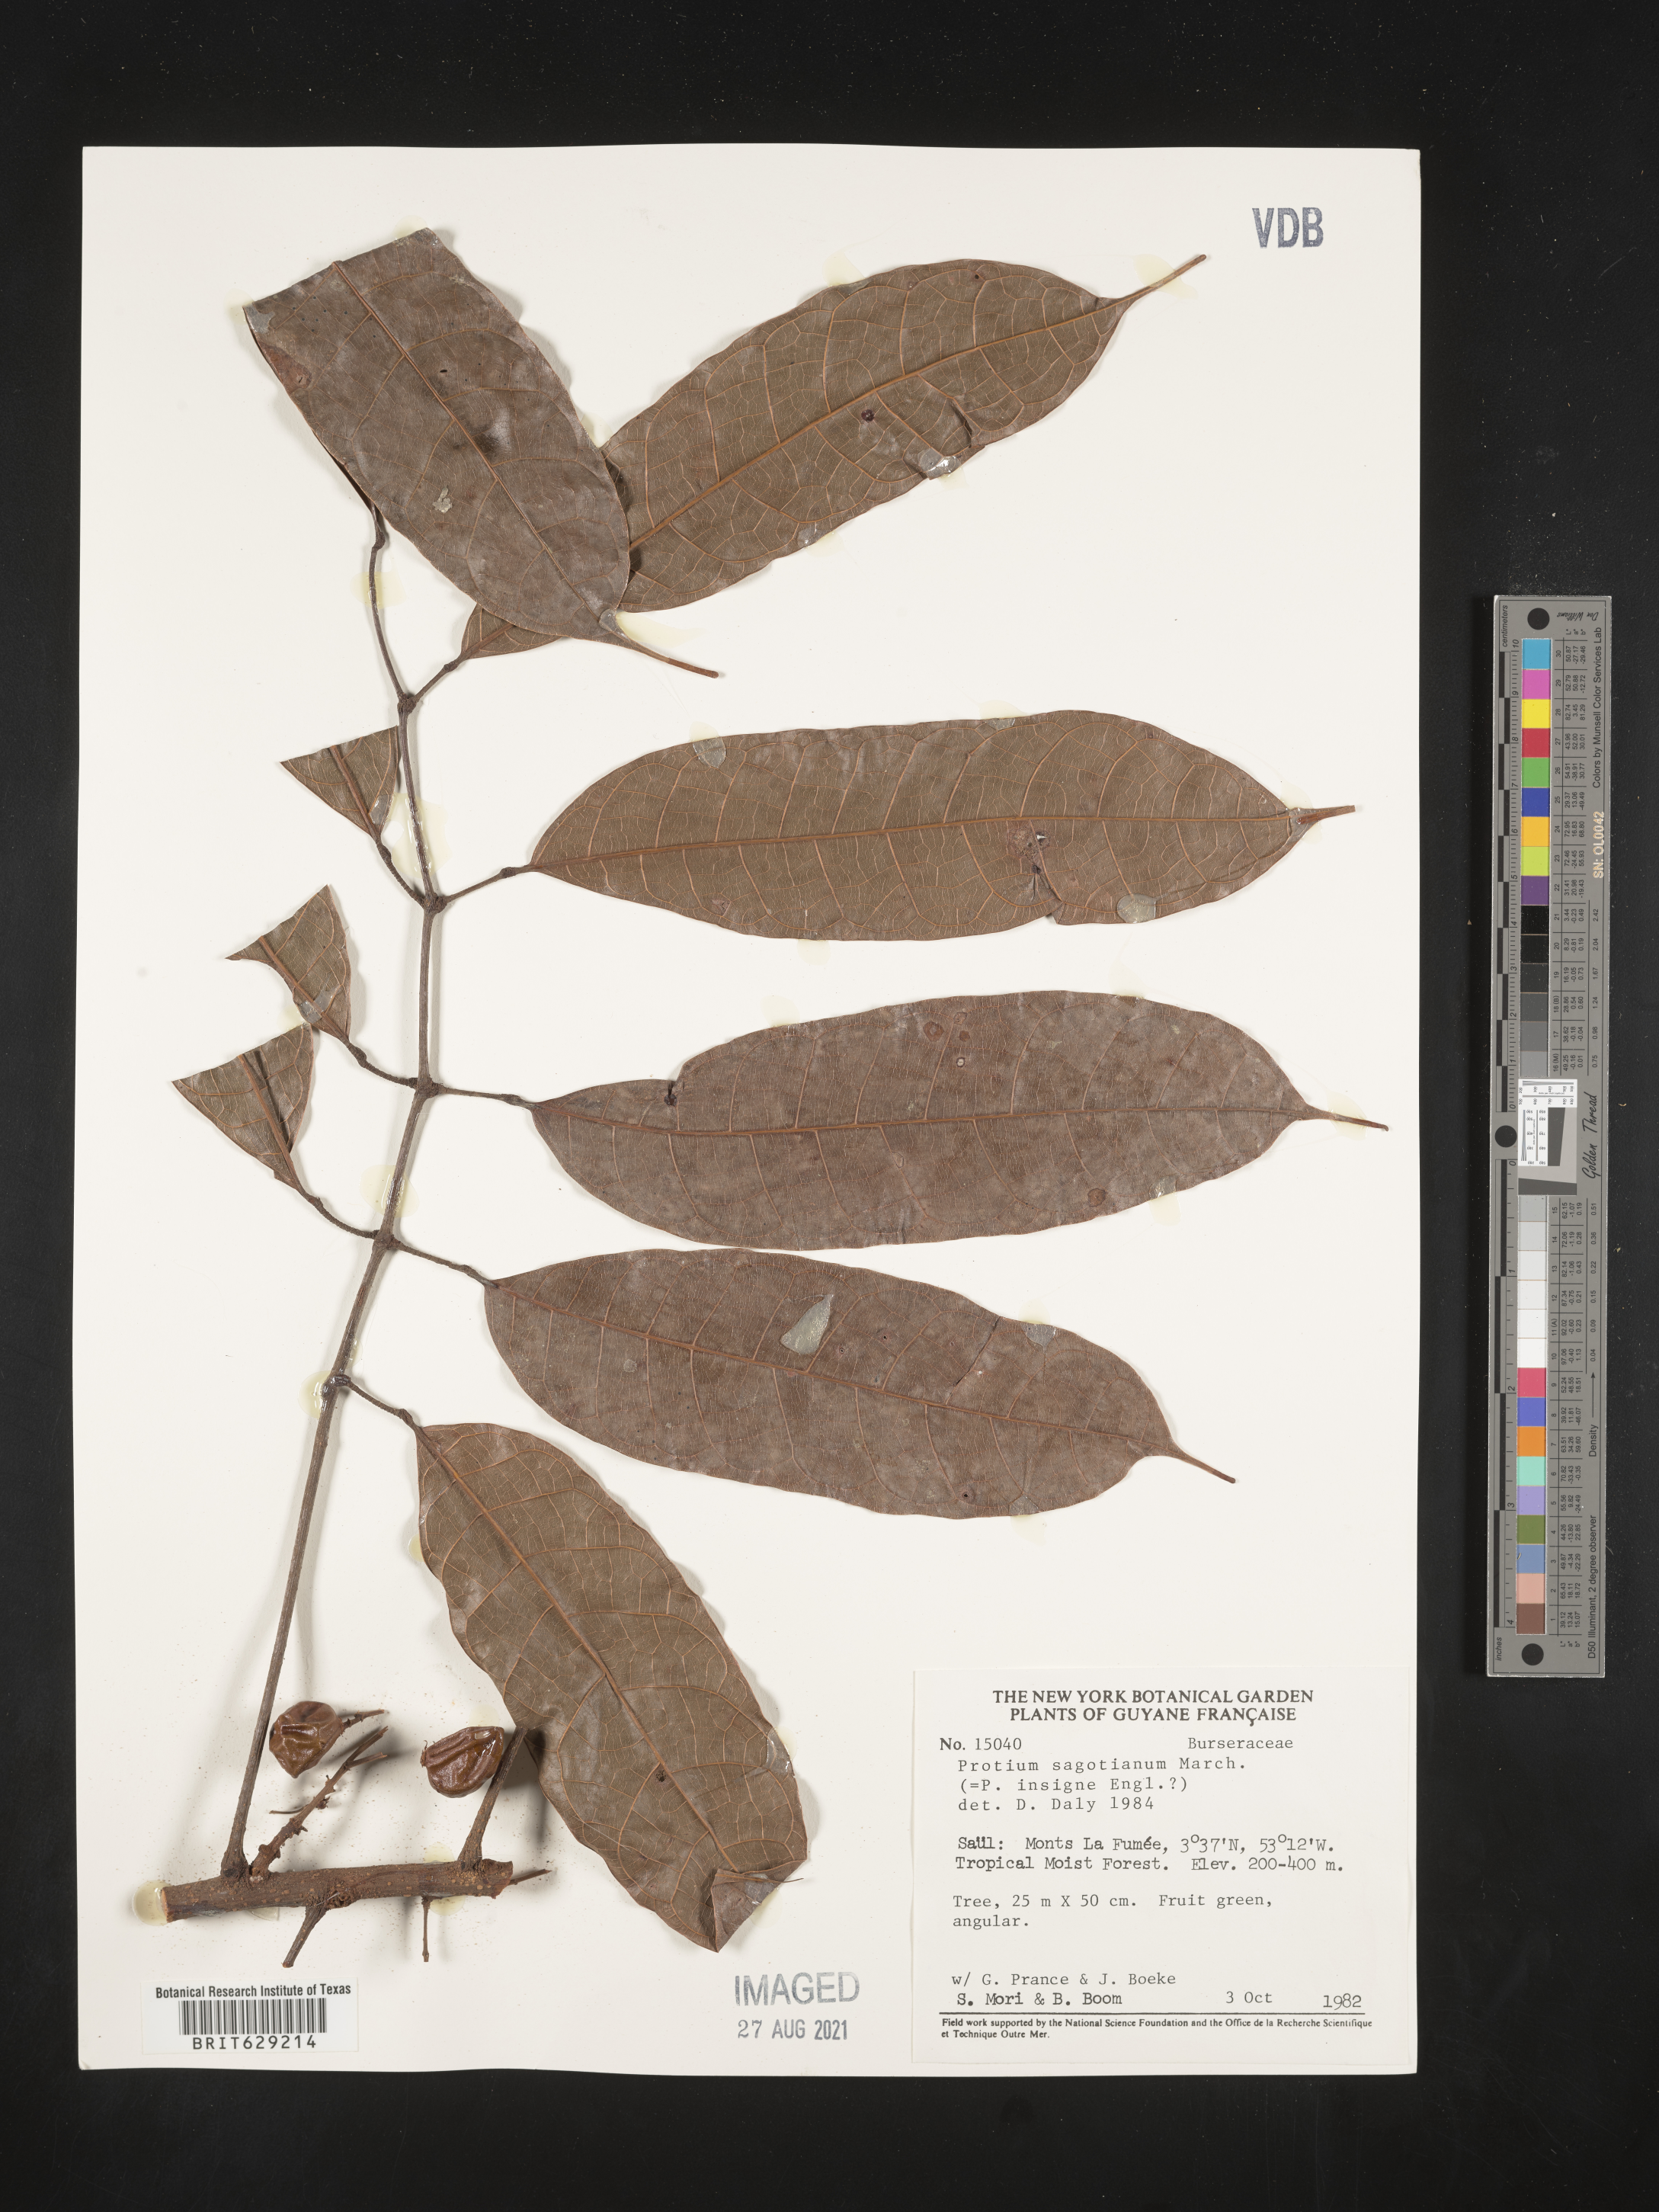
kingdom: Plantae
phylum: Tracheophyta
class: Magnoliopsida
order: Sapindales
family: Burseraceae
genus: Protium
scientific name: Protium sagotianum
